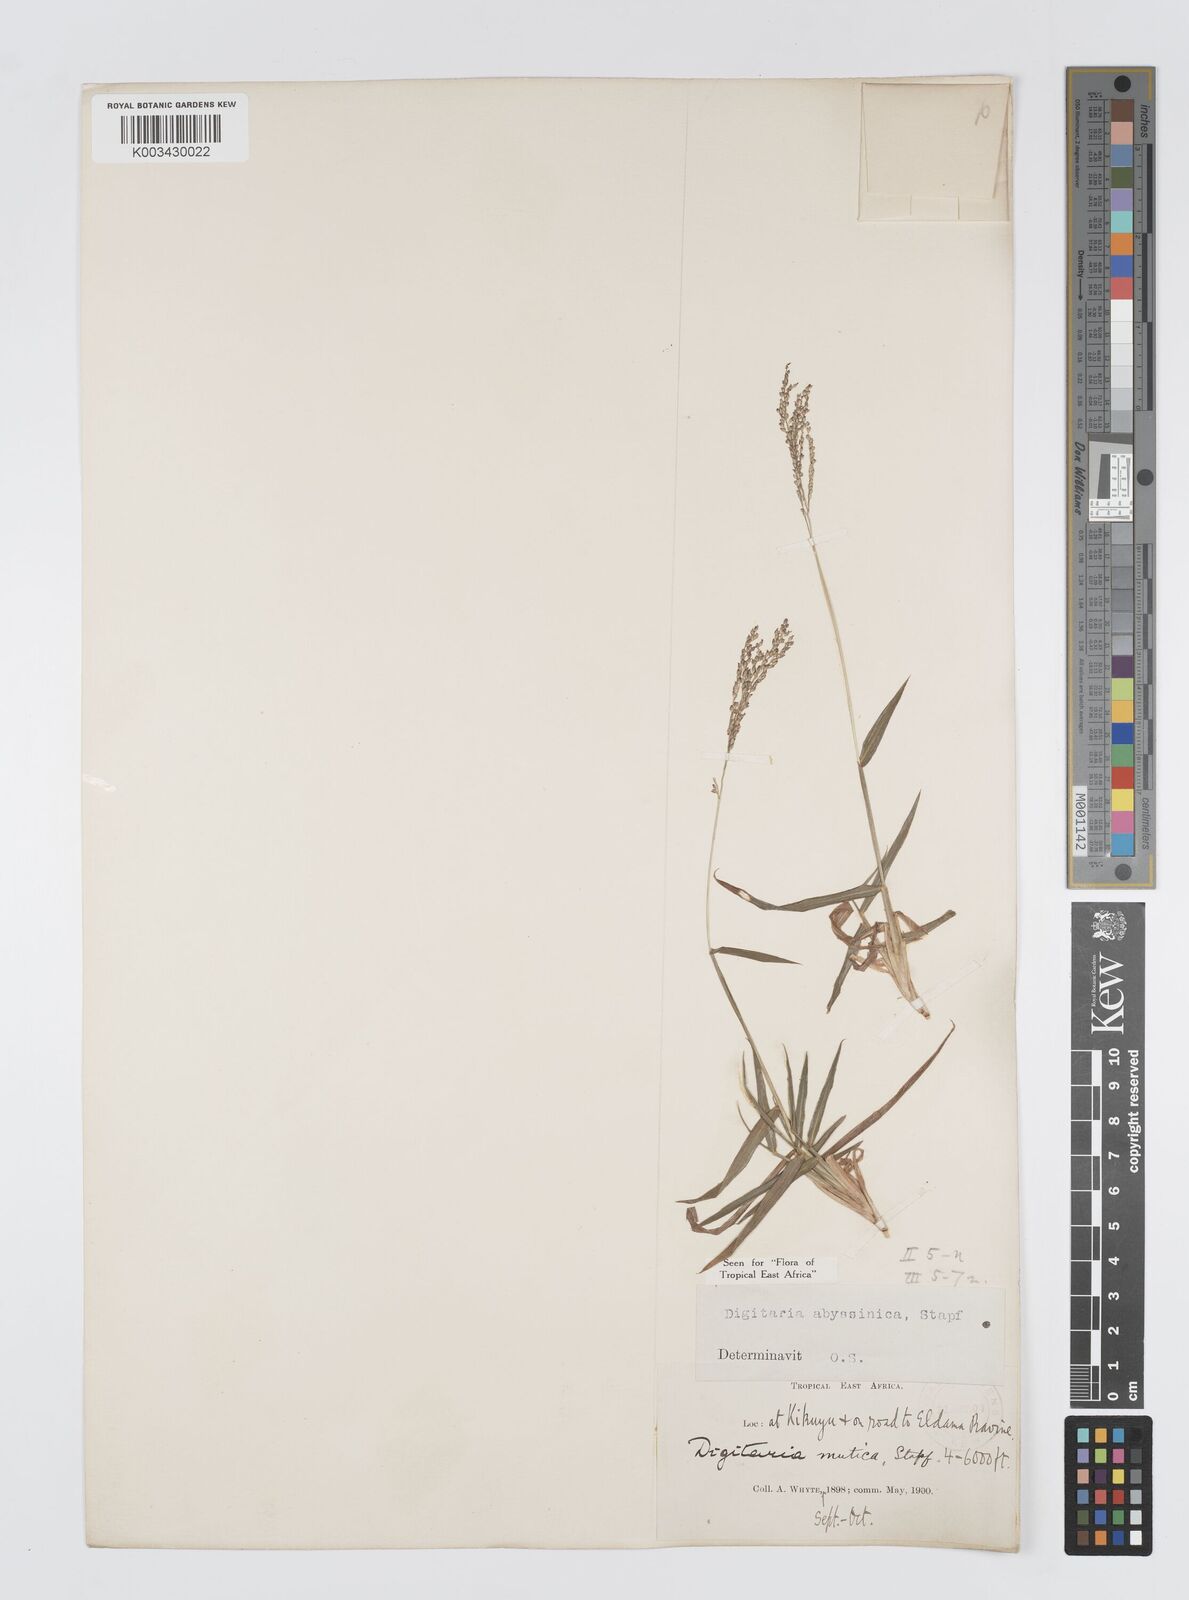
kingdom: Plantae
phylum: Tracheophyta
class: Liliopsida
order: Poales
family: Poaceae
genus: Digitaria
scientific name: Digitaria abyssinica
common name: African couchgrass
